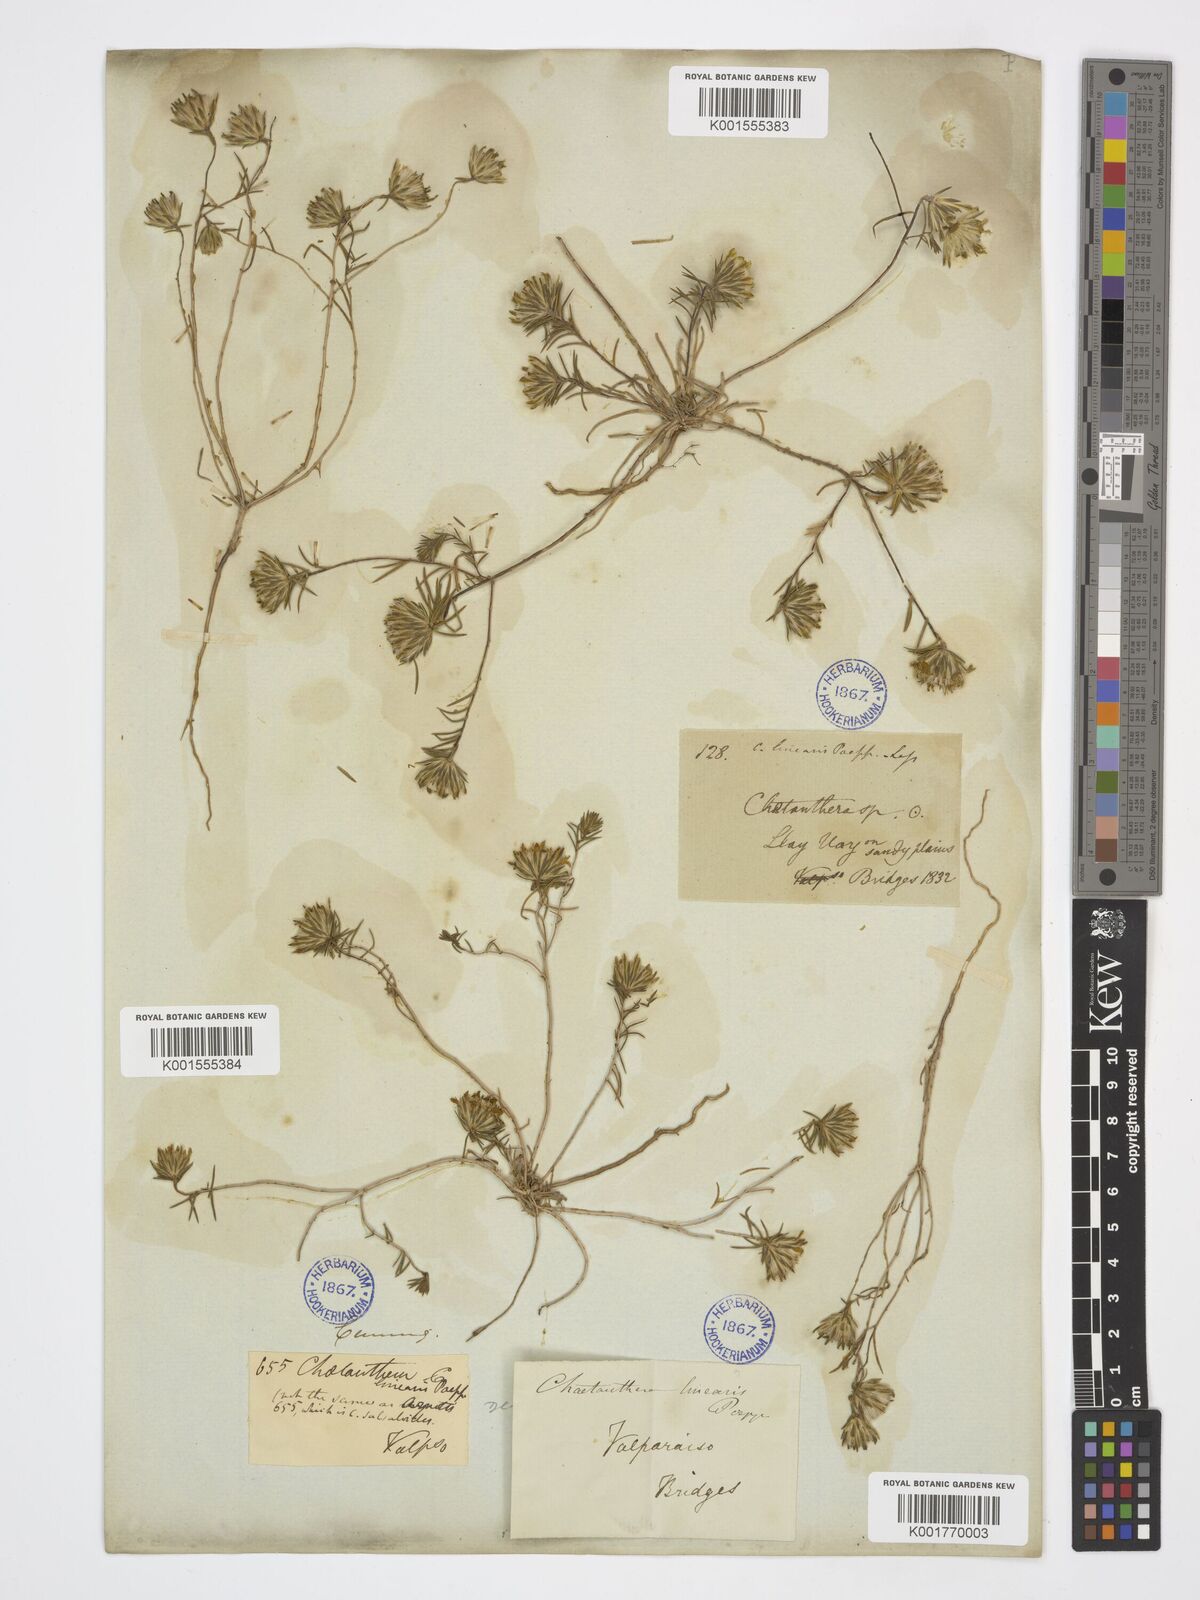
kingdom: Plantae
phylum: Tracheophyta
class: Magnoliopsida
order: Asterales
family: Asteraceae
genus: Chaetanthera
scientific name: Chaetanthera linearis
